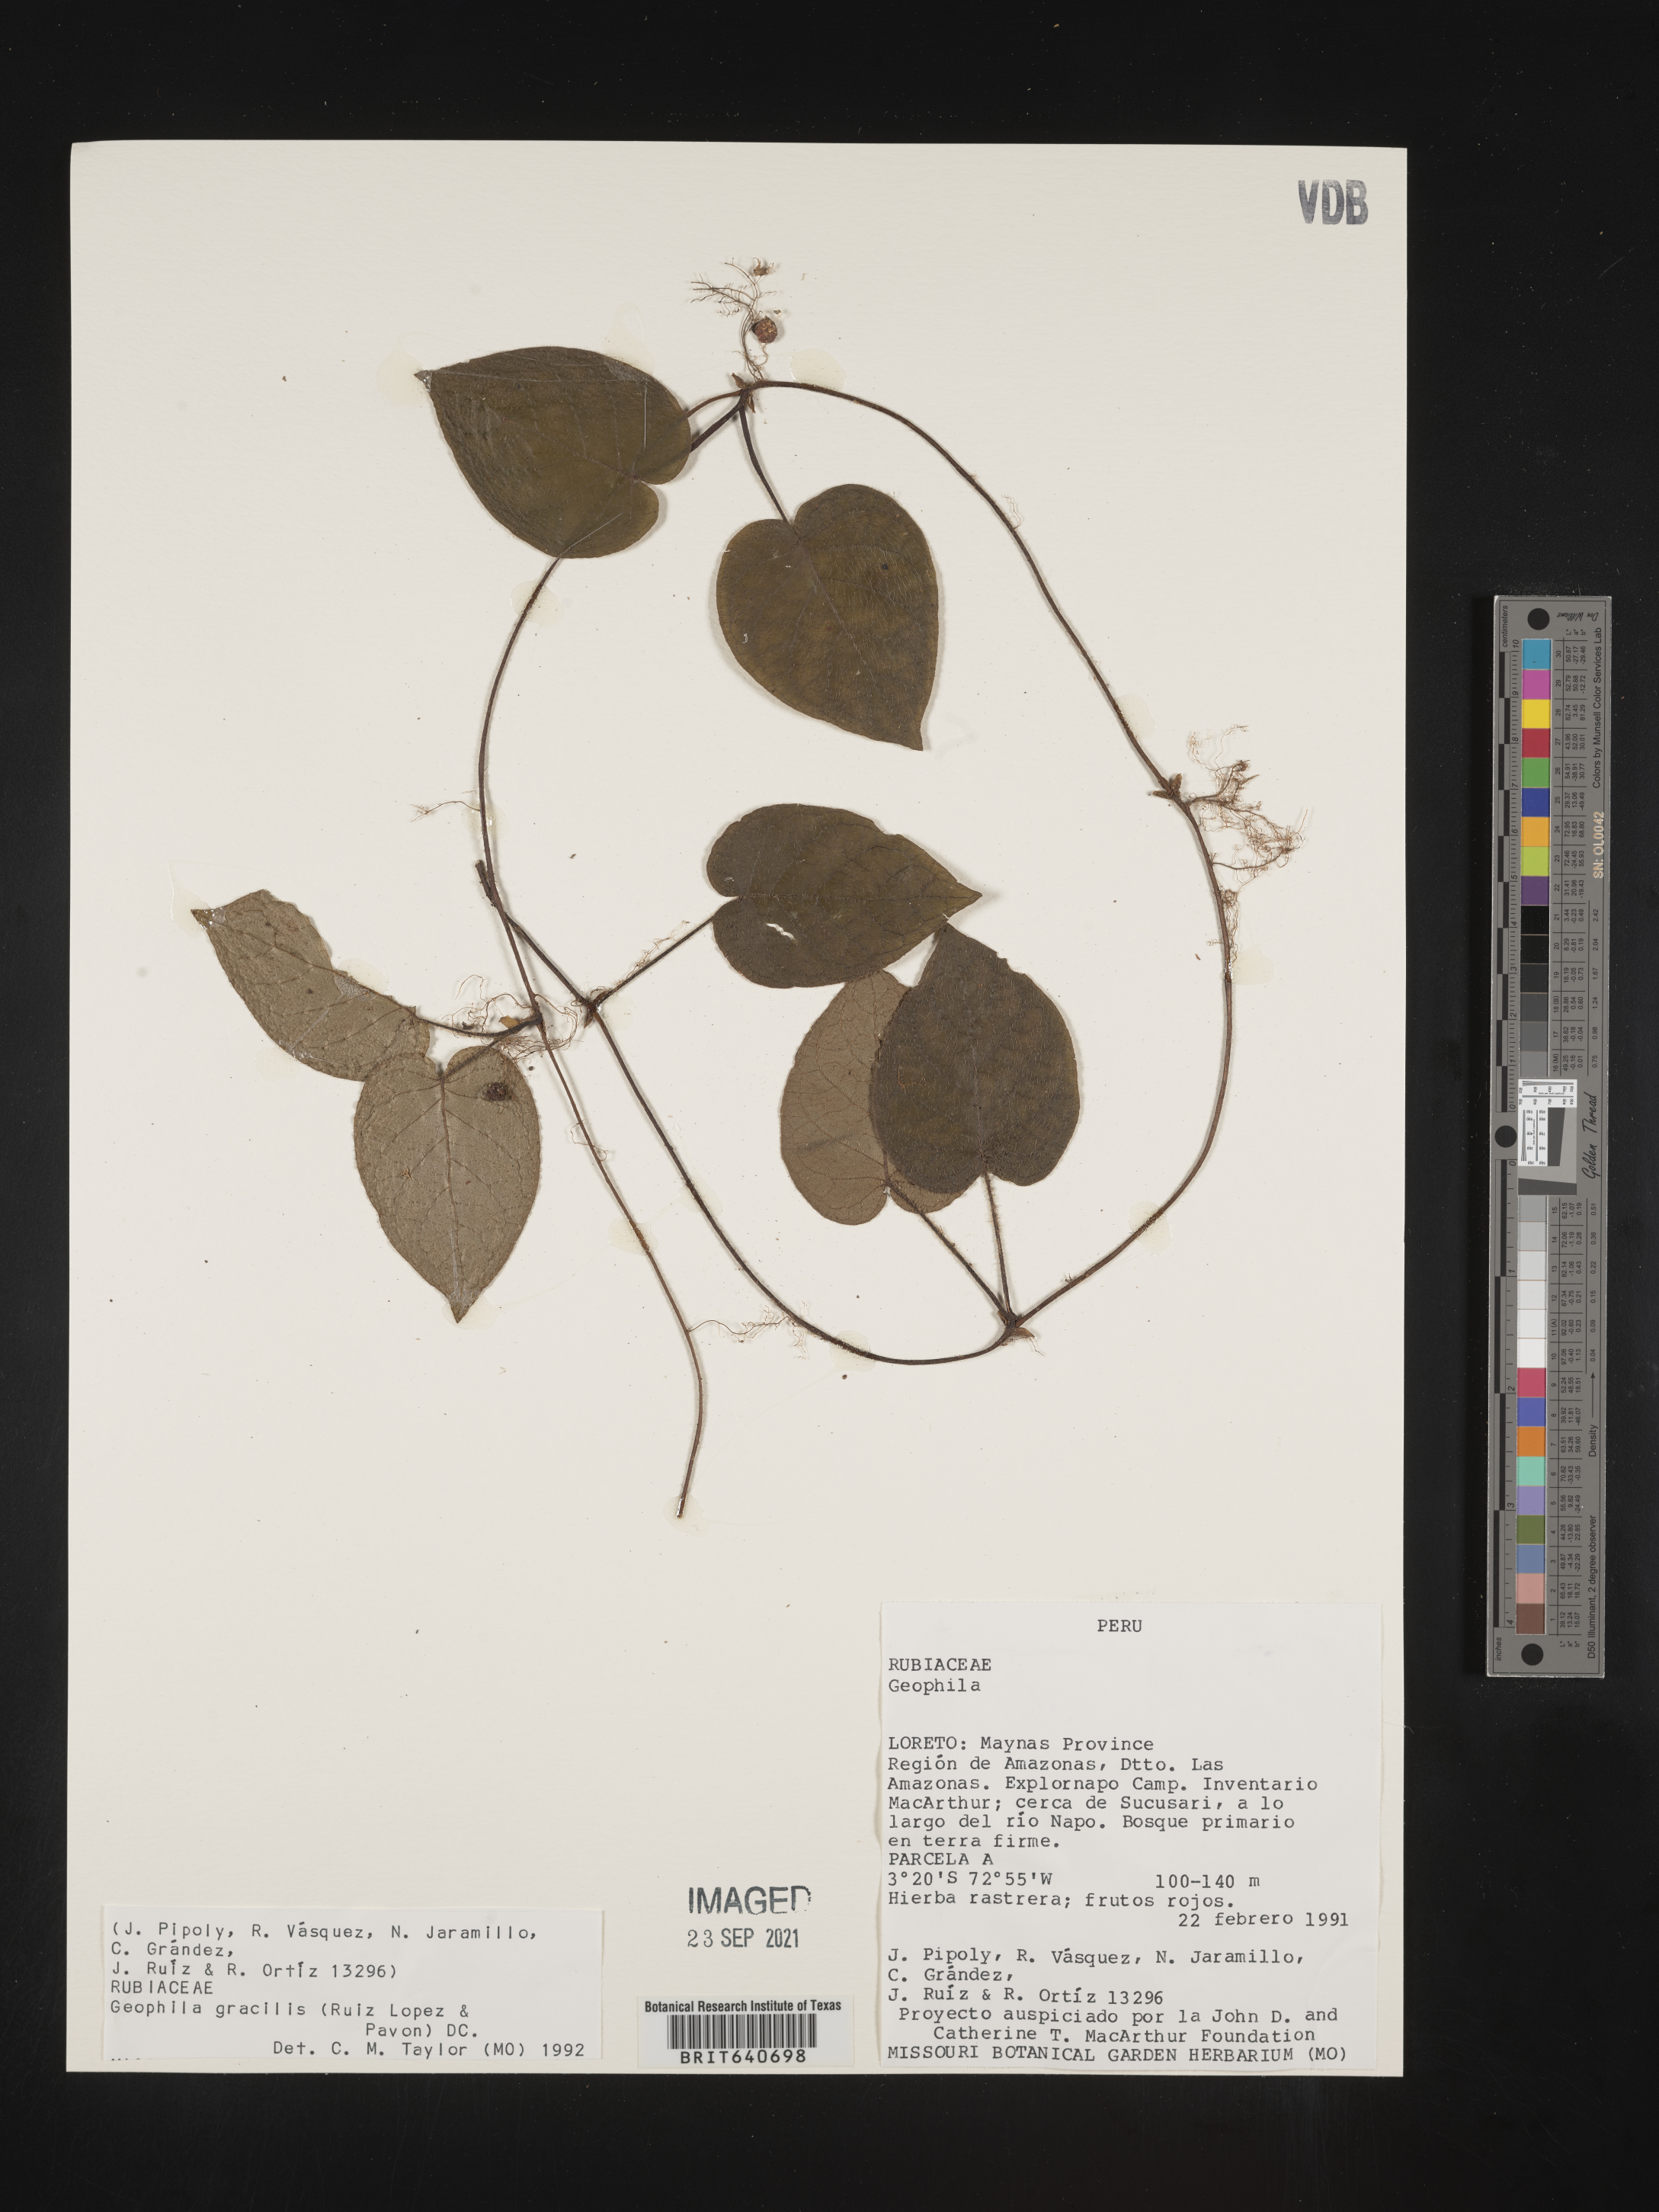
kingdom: Plantae
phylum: Tracheophyta
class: Magnoliopsida
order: Gentianales
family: Rubiaceae
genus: Geophila
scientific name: Geophila
